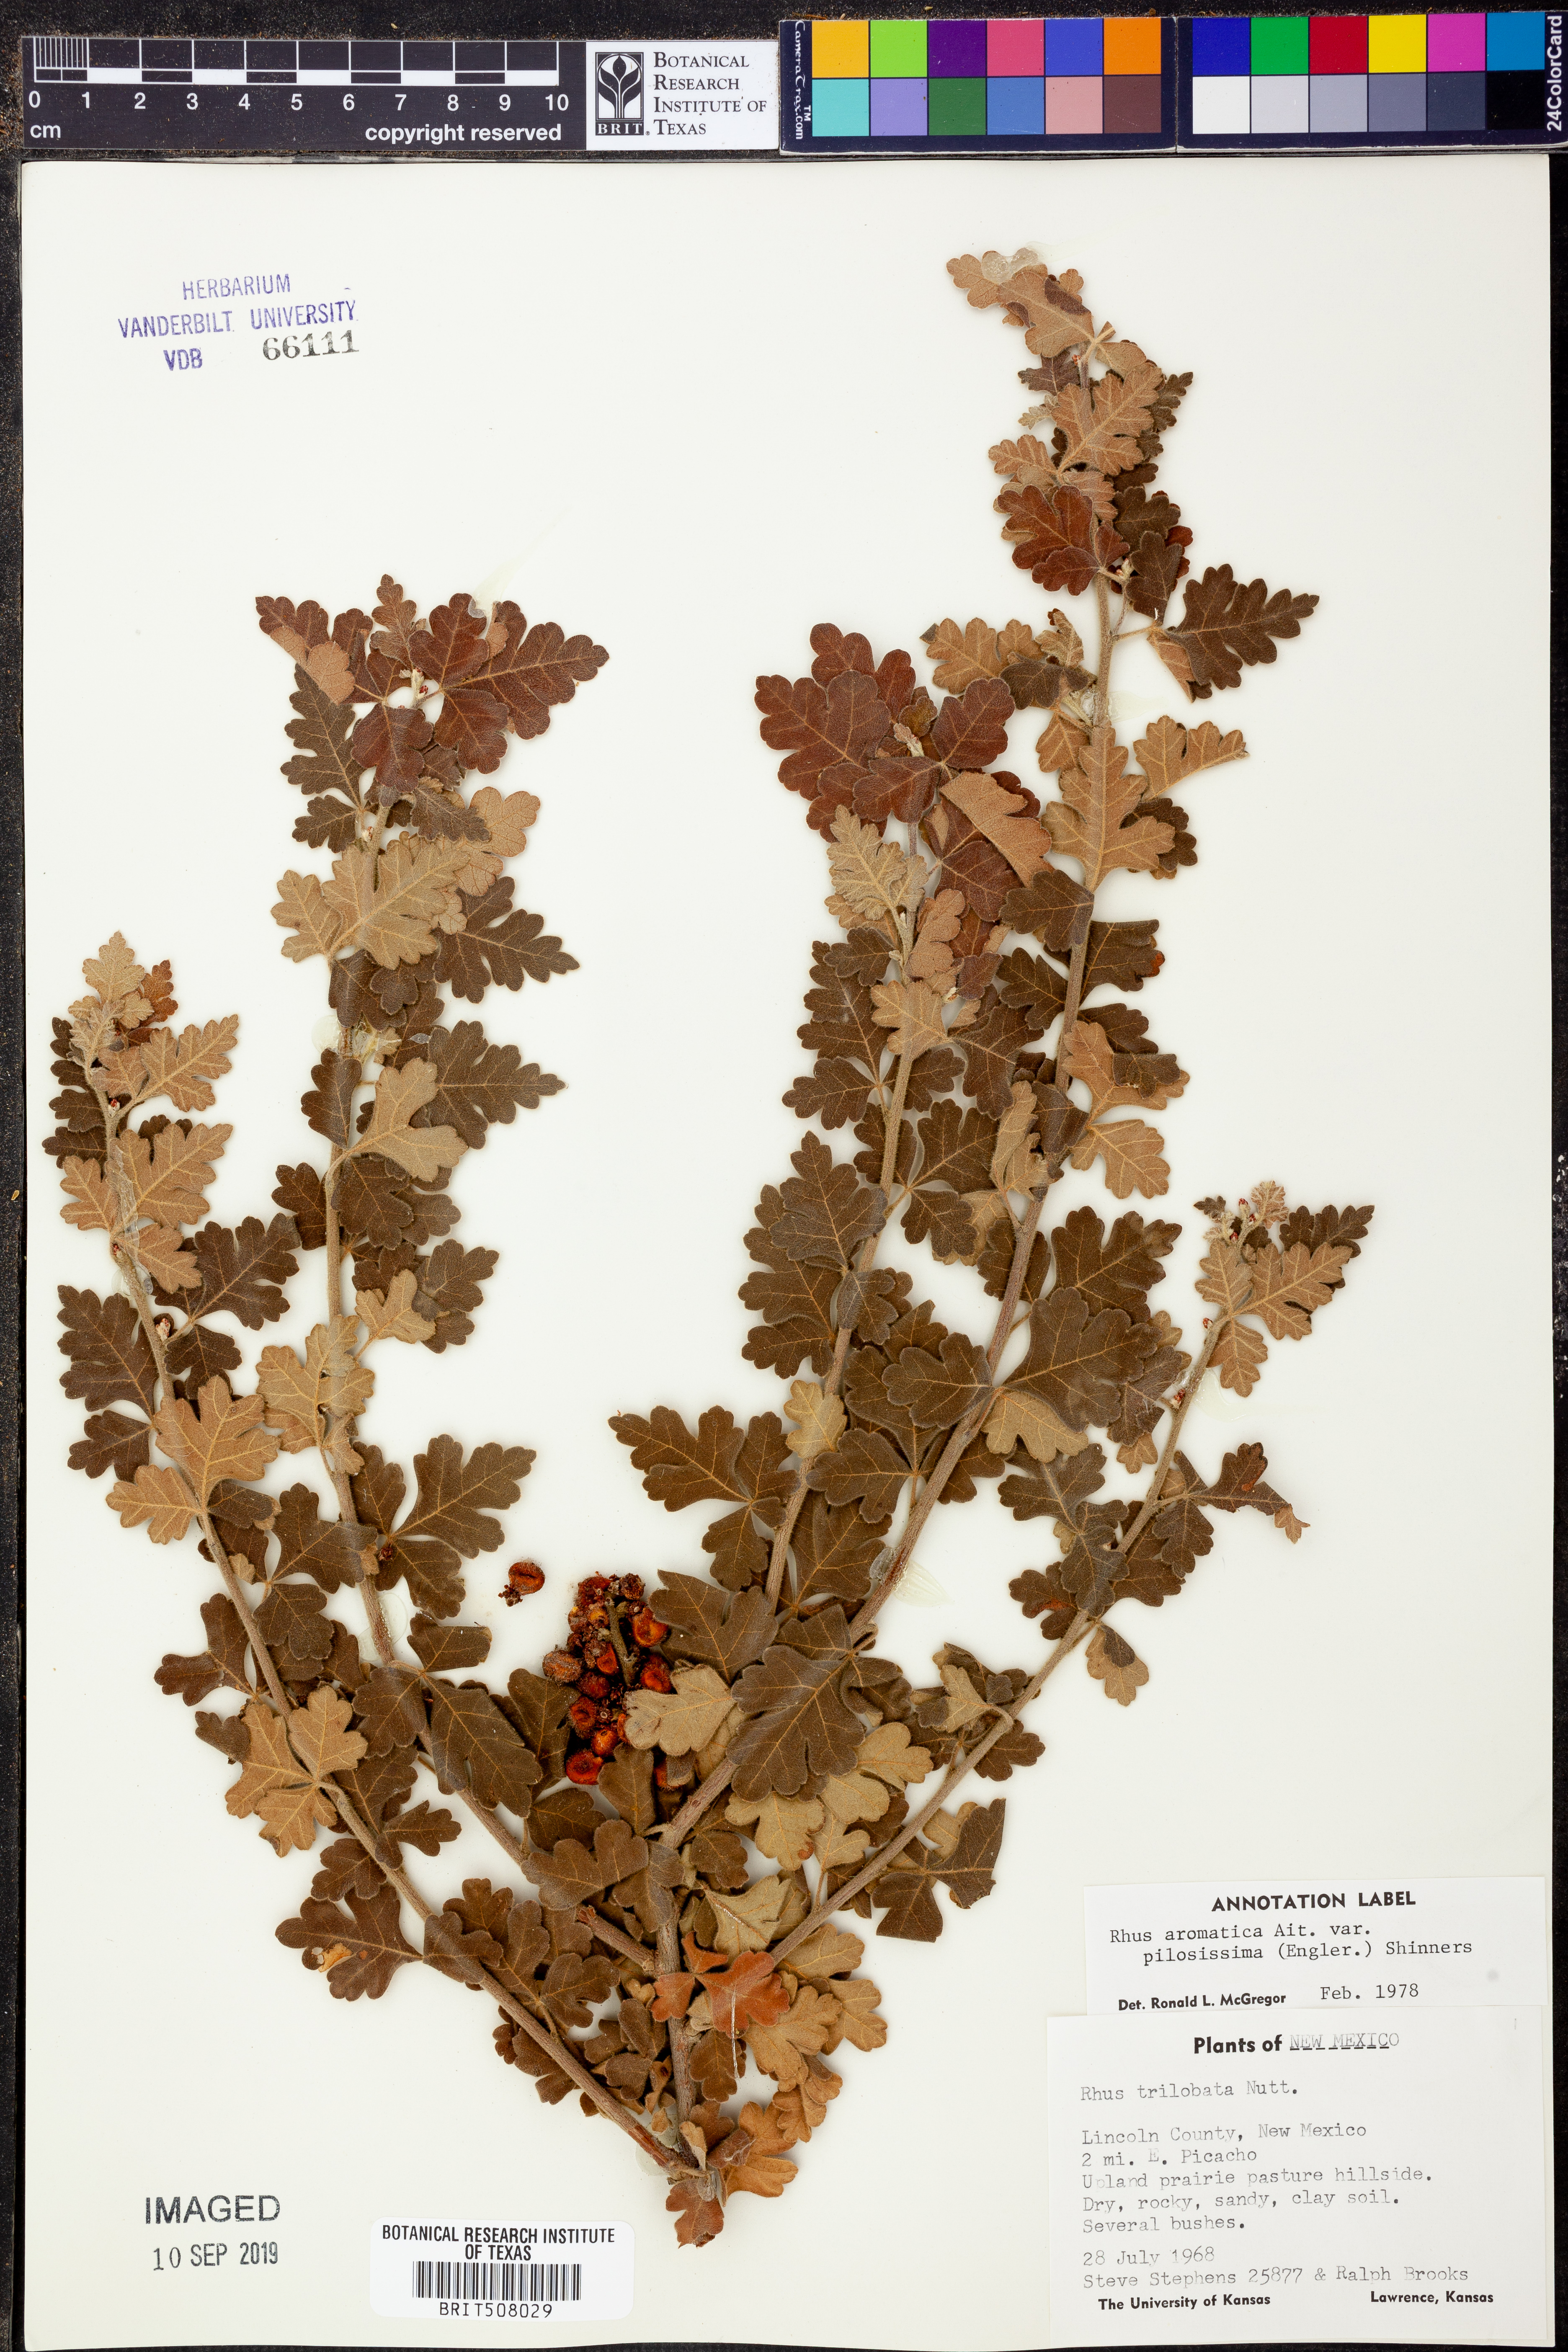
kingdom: Plantae
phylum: Tracheophyta
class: Magnoliopsida
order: Sapindales
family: Anacardiaceae
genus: Rhus
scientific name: Rhus trilobata
